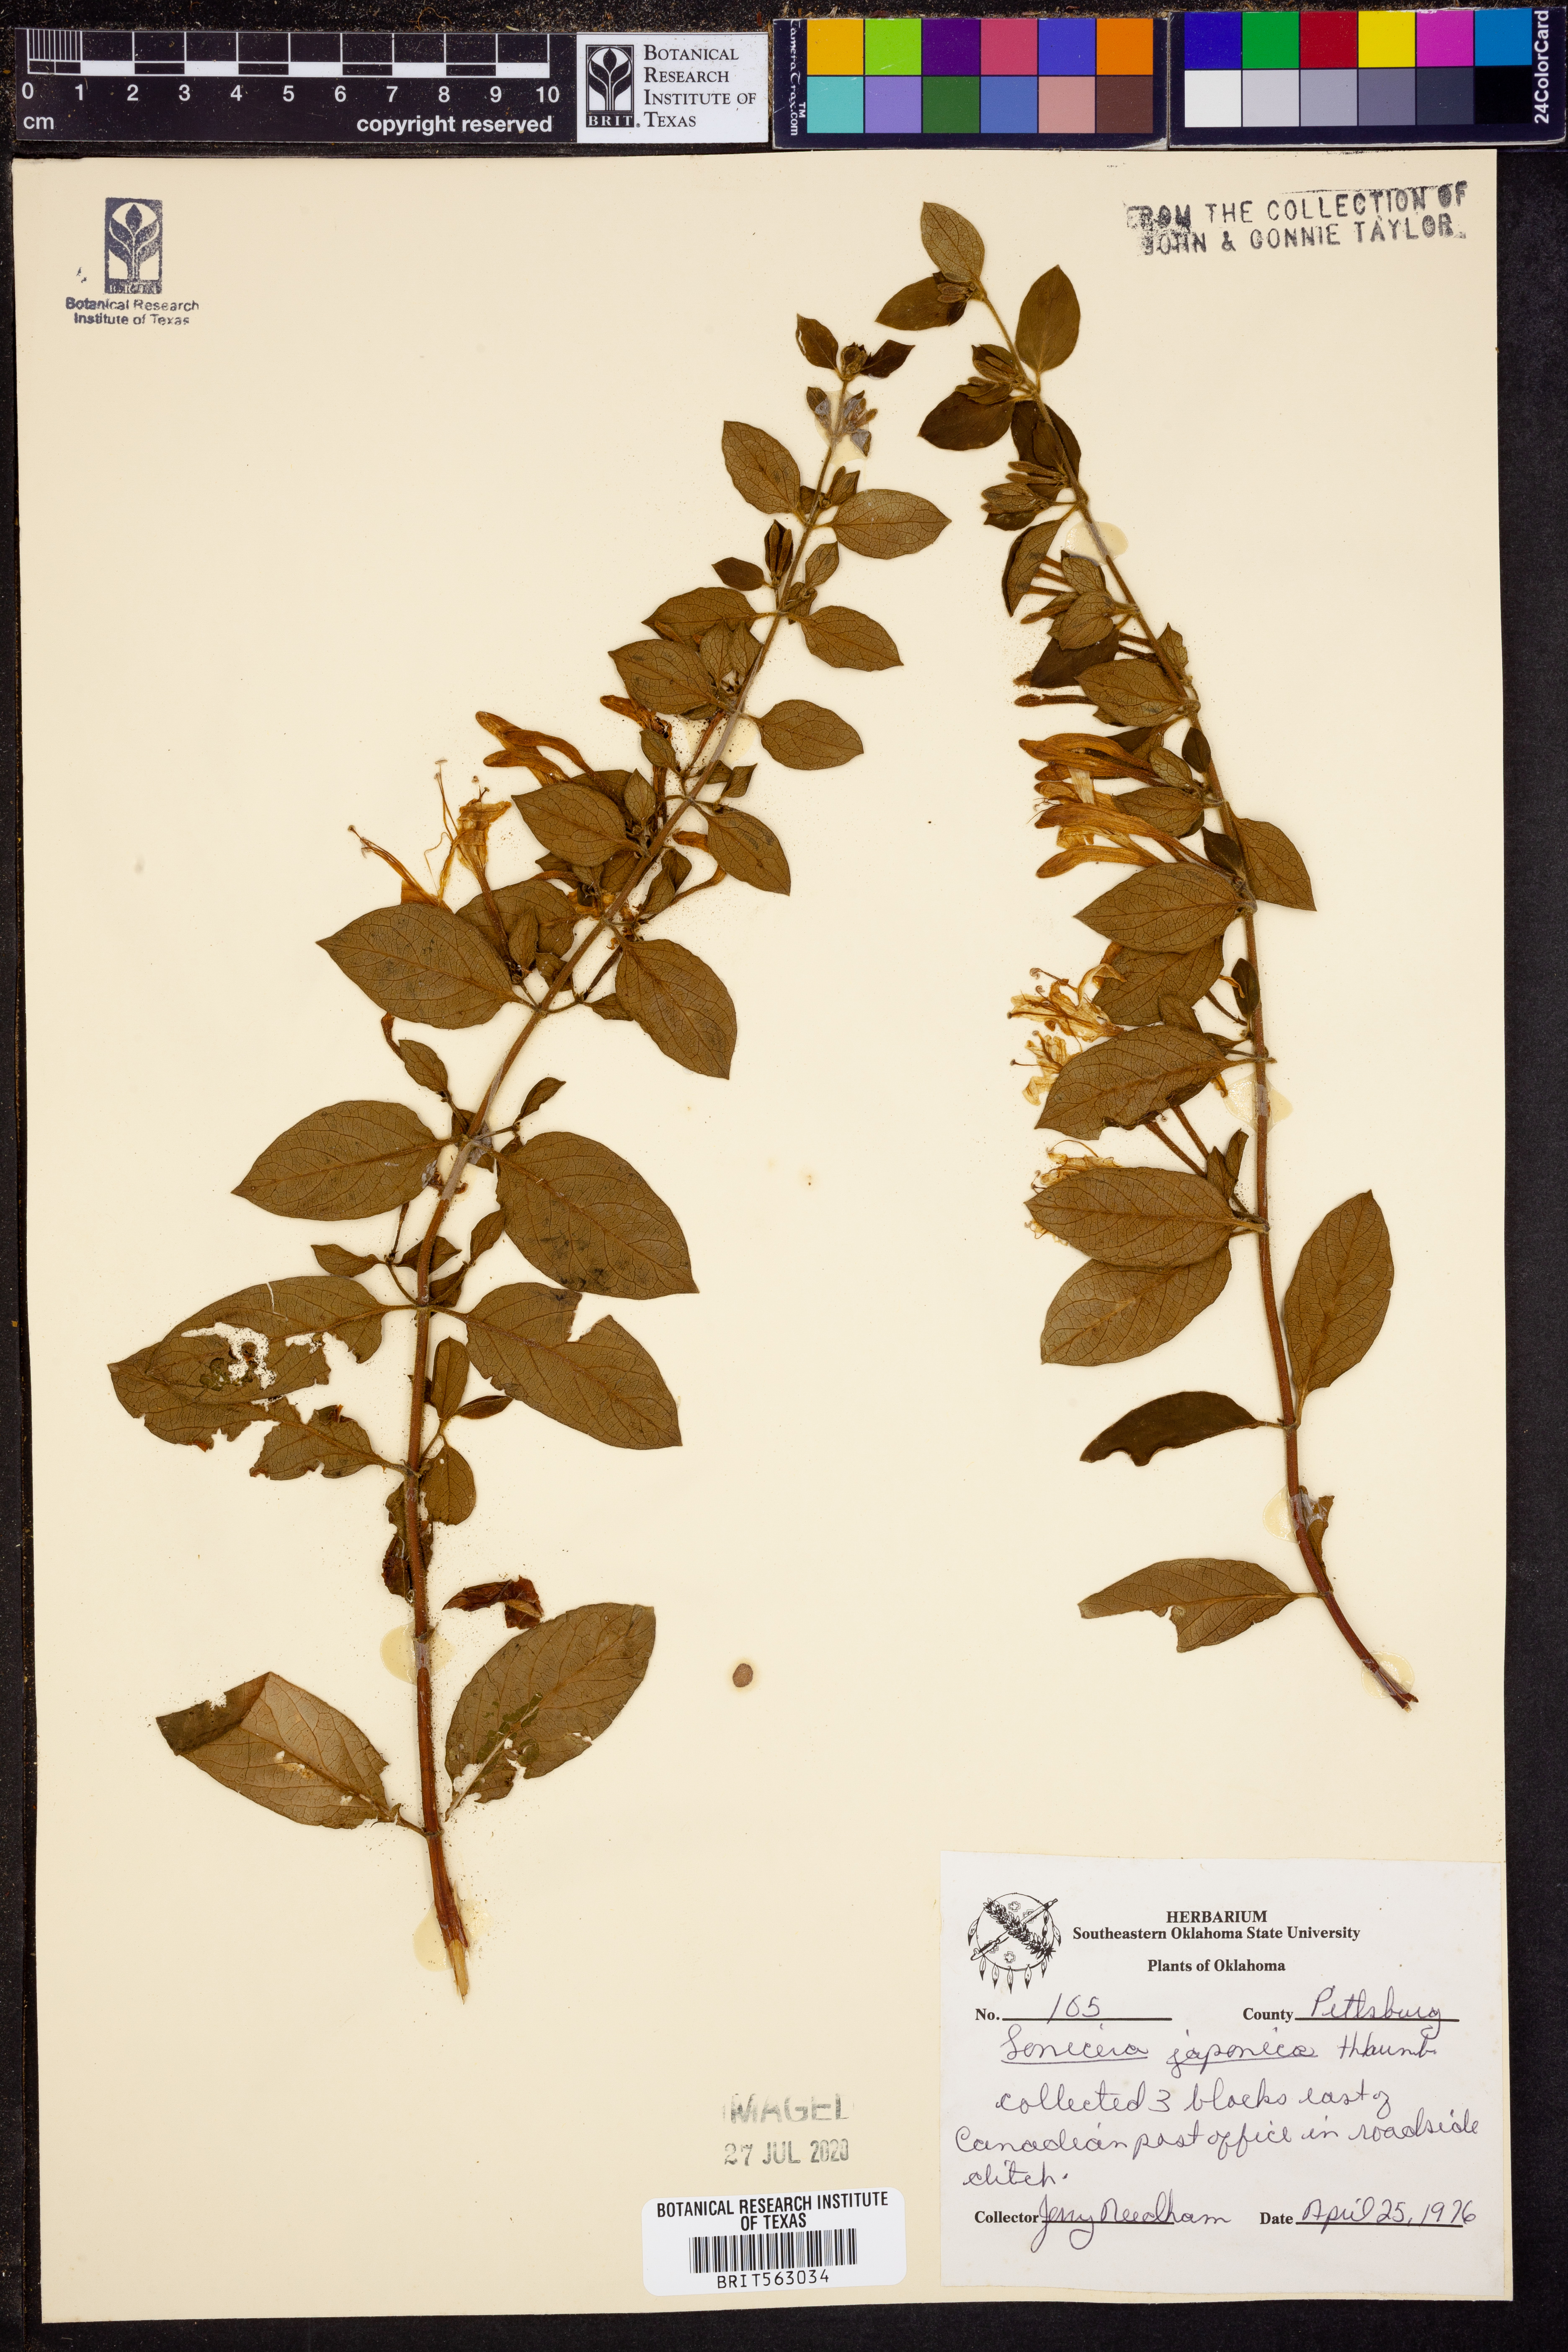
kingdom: Plantae
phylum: Tracheophyta
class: Magnoliopsida
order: Dipsacales
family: Caprifoliaceae
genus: Lonicera
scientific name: Lonicera japonica
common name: Japanese honeysuckle
